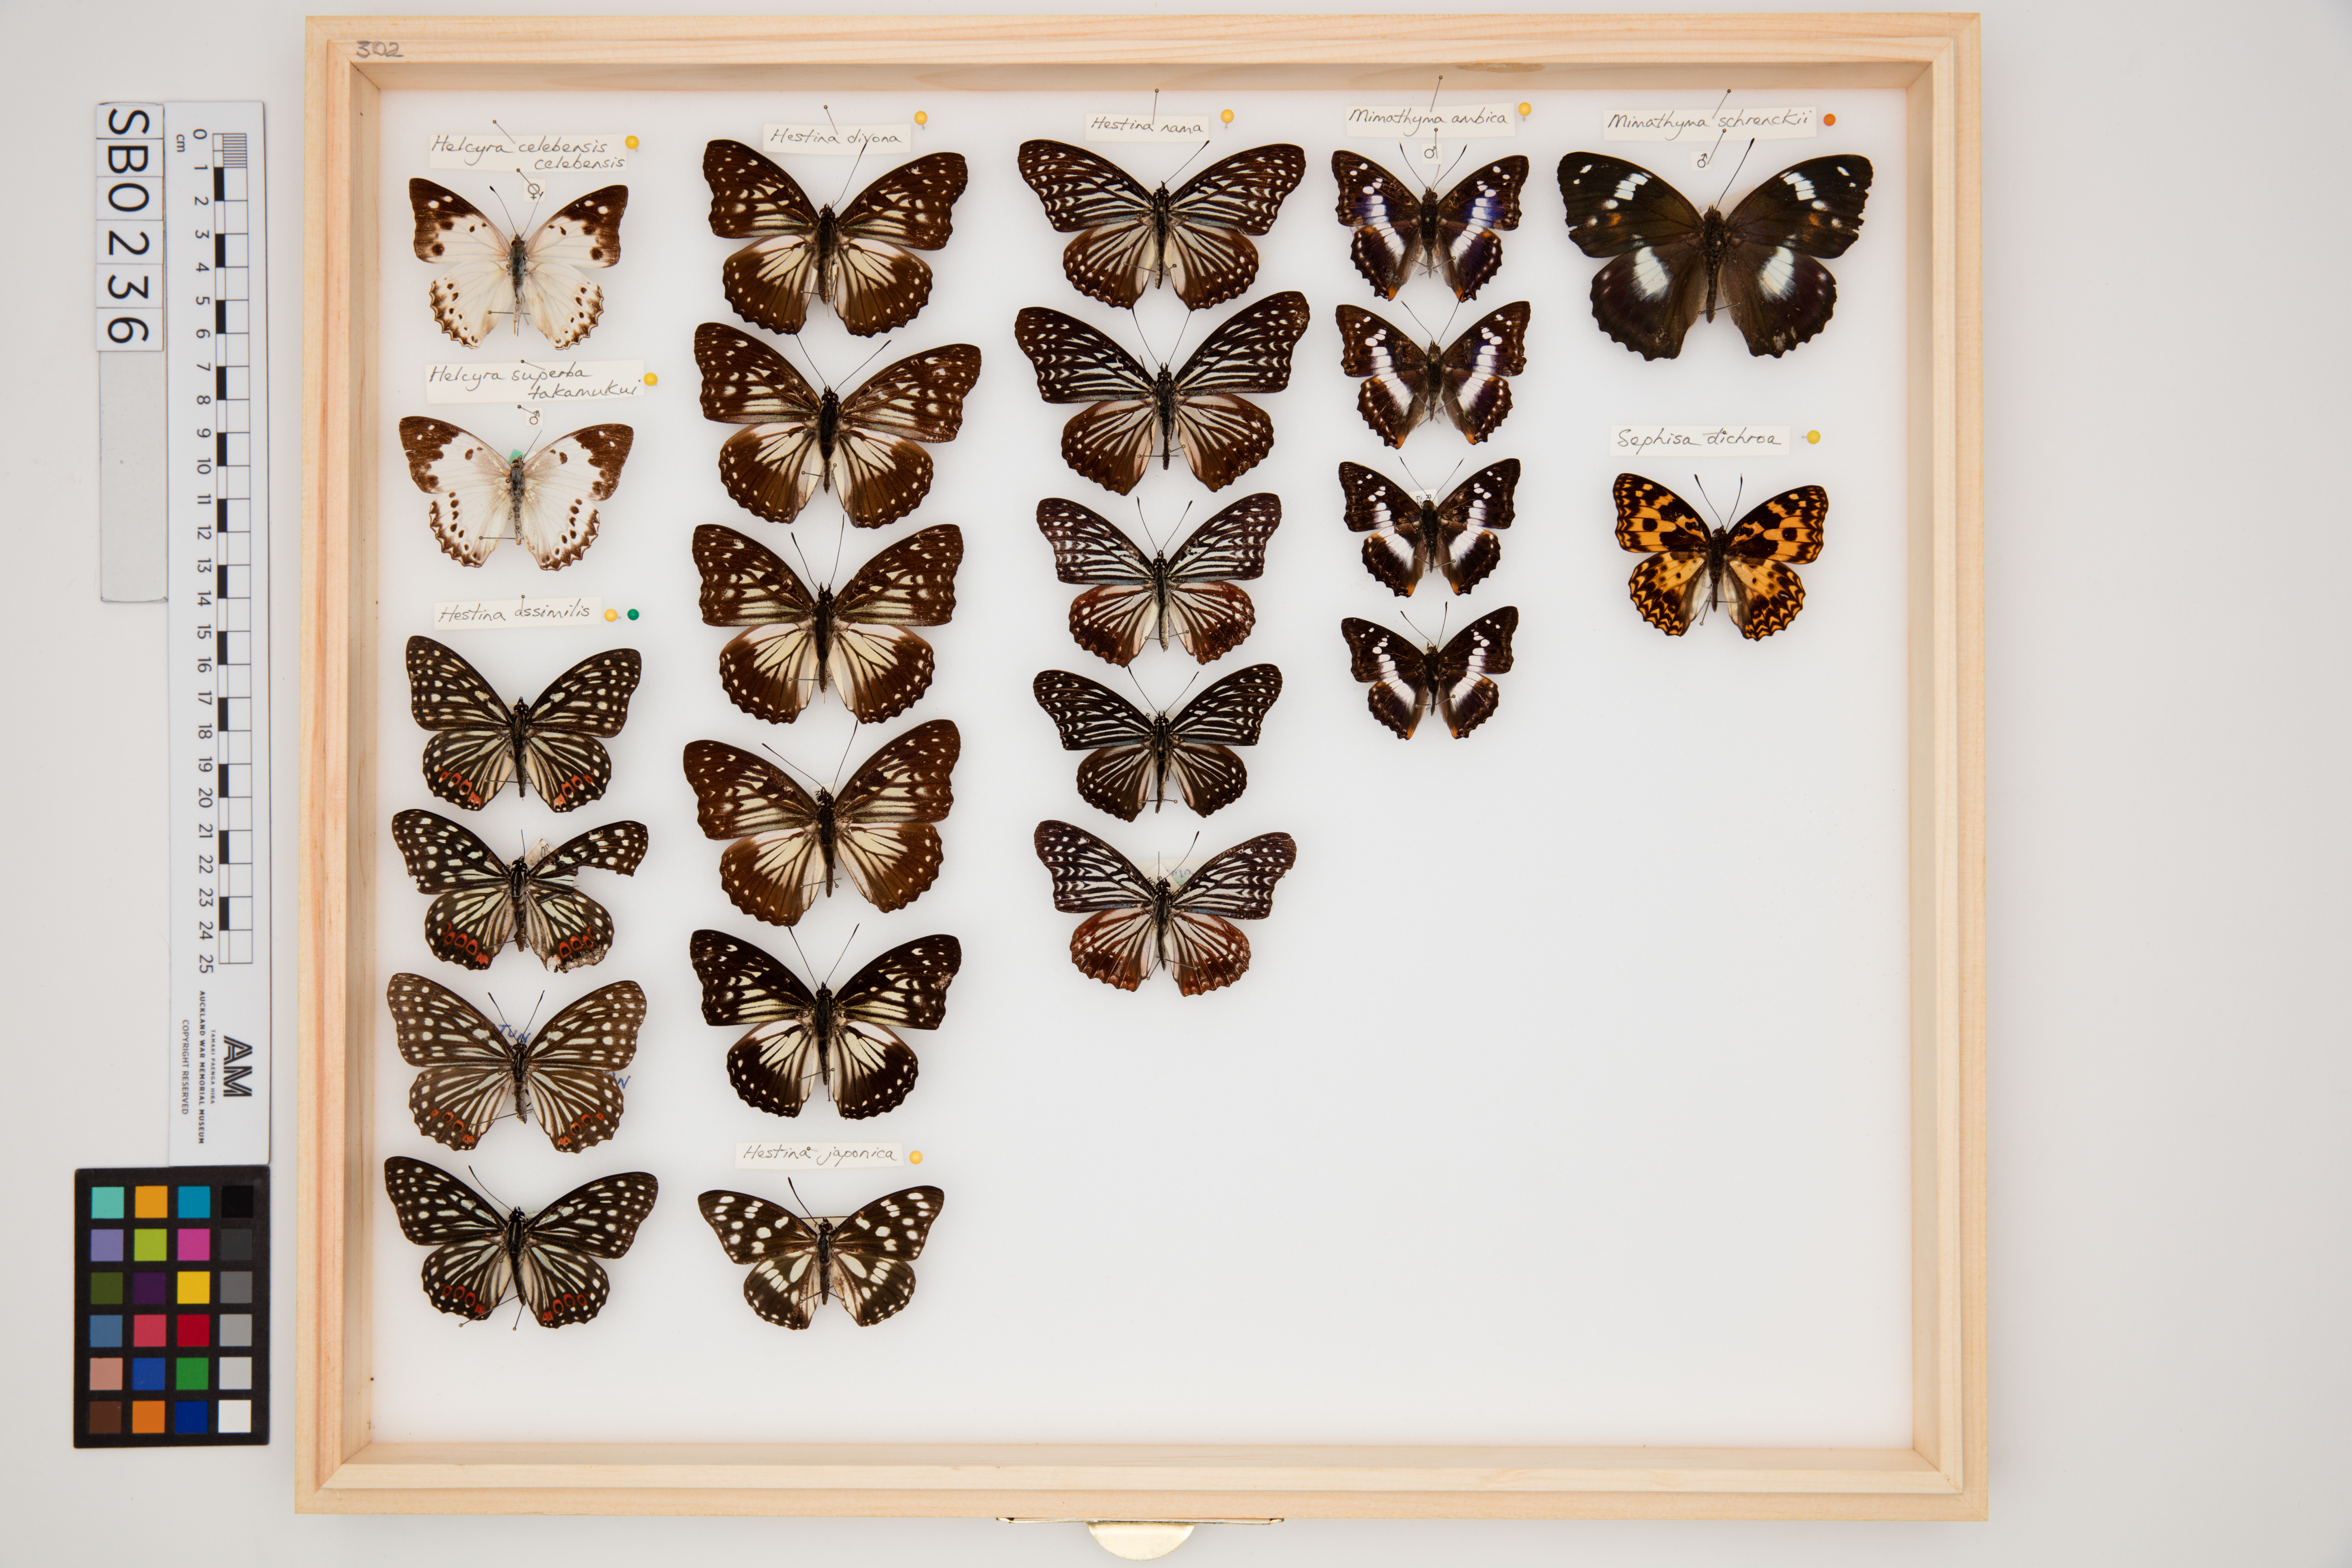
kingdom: Animalia
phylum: Arthropoda
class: Insecta
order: Lepidoptera
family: Nymphalidae
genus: Apatura
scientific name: Apatura Mimathyma schrencki
